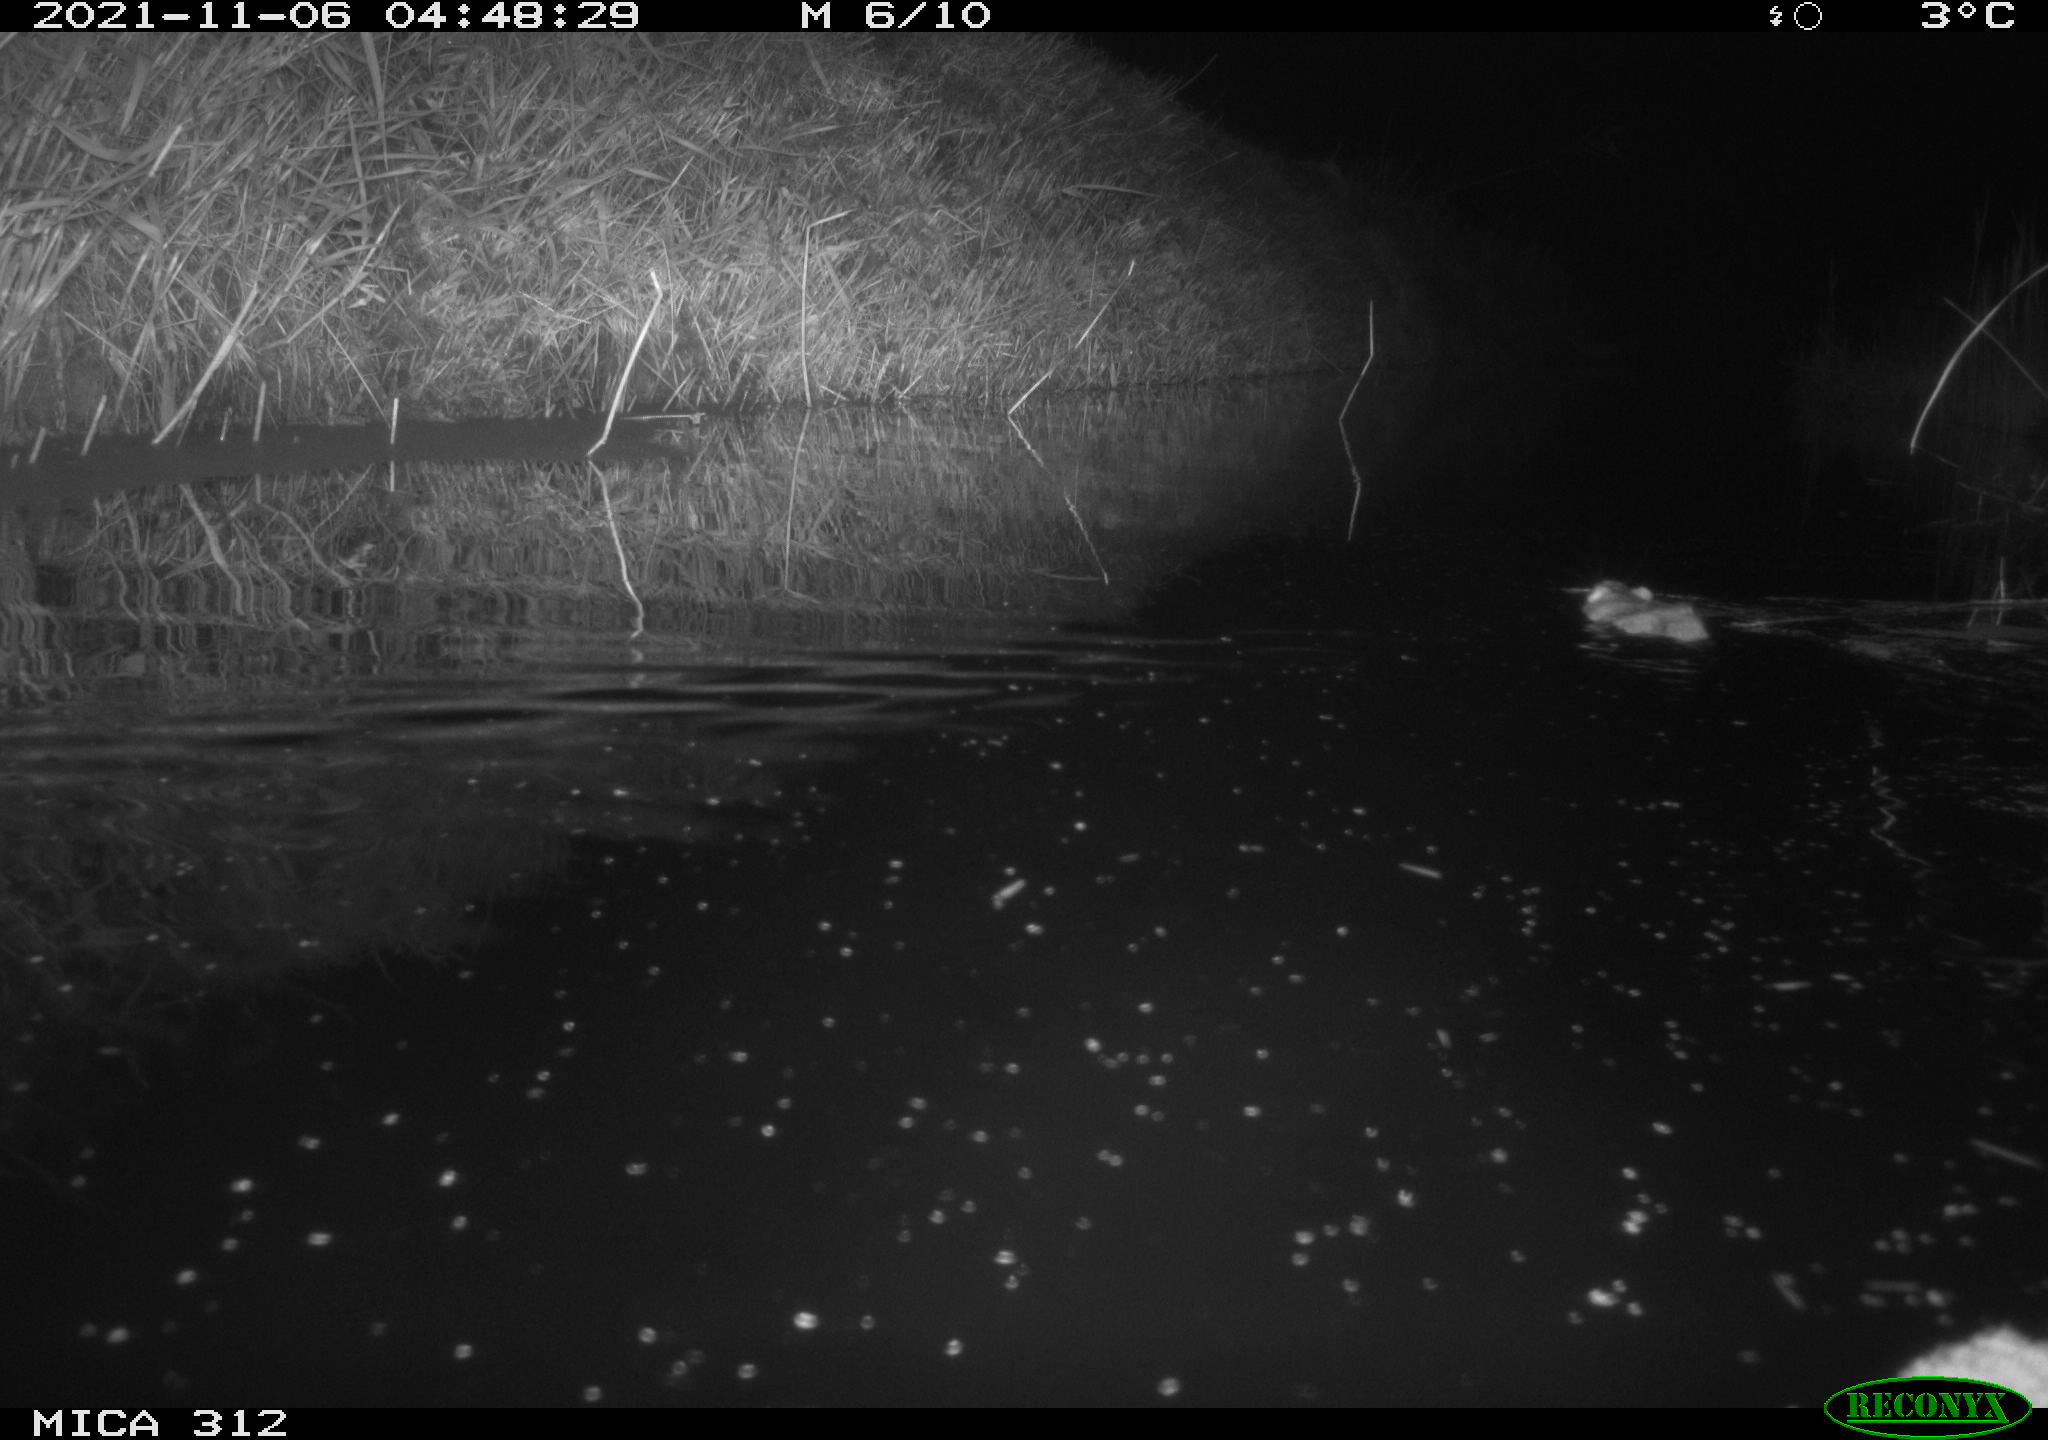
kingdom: Animalia
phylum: Chordata
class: Mammalia
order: Rodentia
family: Muridae
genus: Rattus
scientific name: Rattus norvegicus
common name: Brown rat
